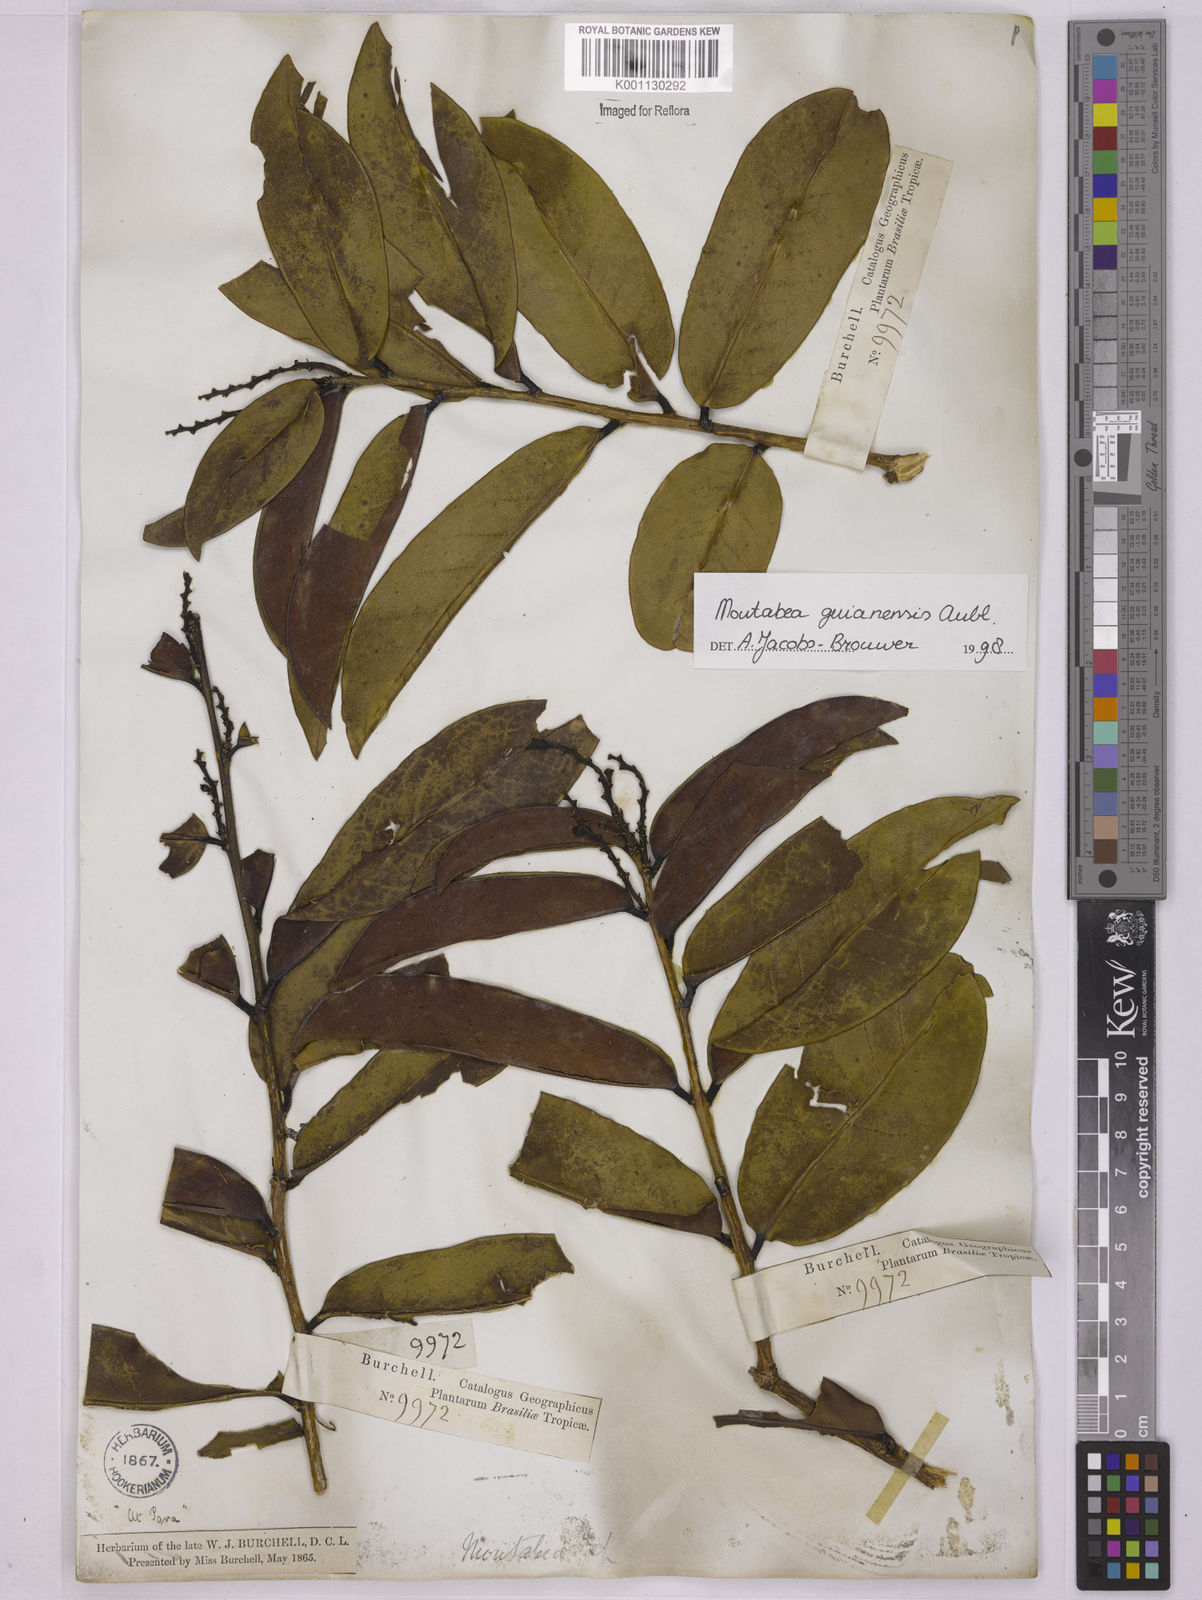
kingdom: Plantae
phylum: Tracheophyta
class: Magnoliopsida
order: Fabales
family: Polygalaceae
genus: Moutabea
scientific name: Moutabea guianensis
